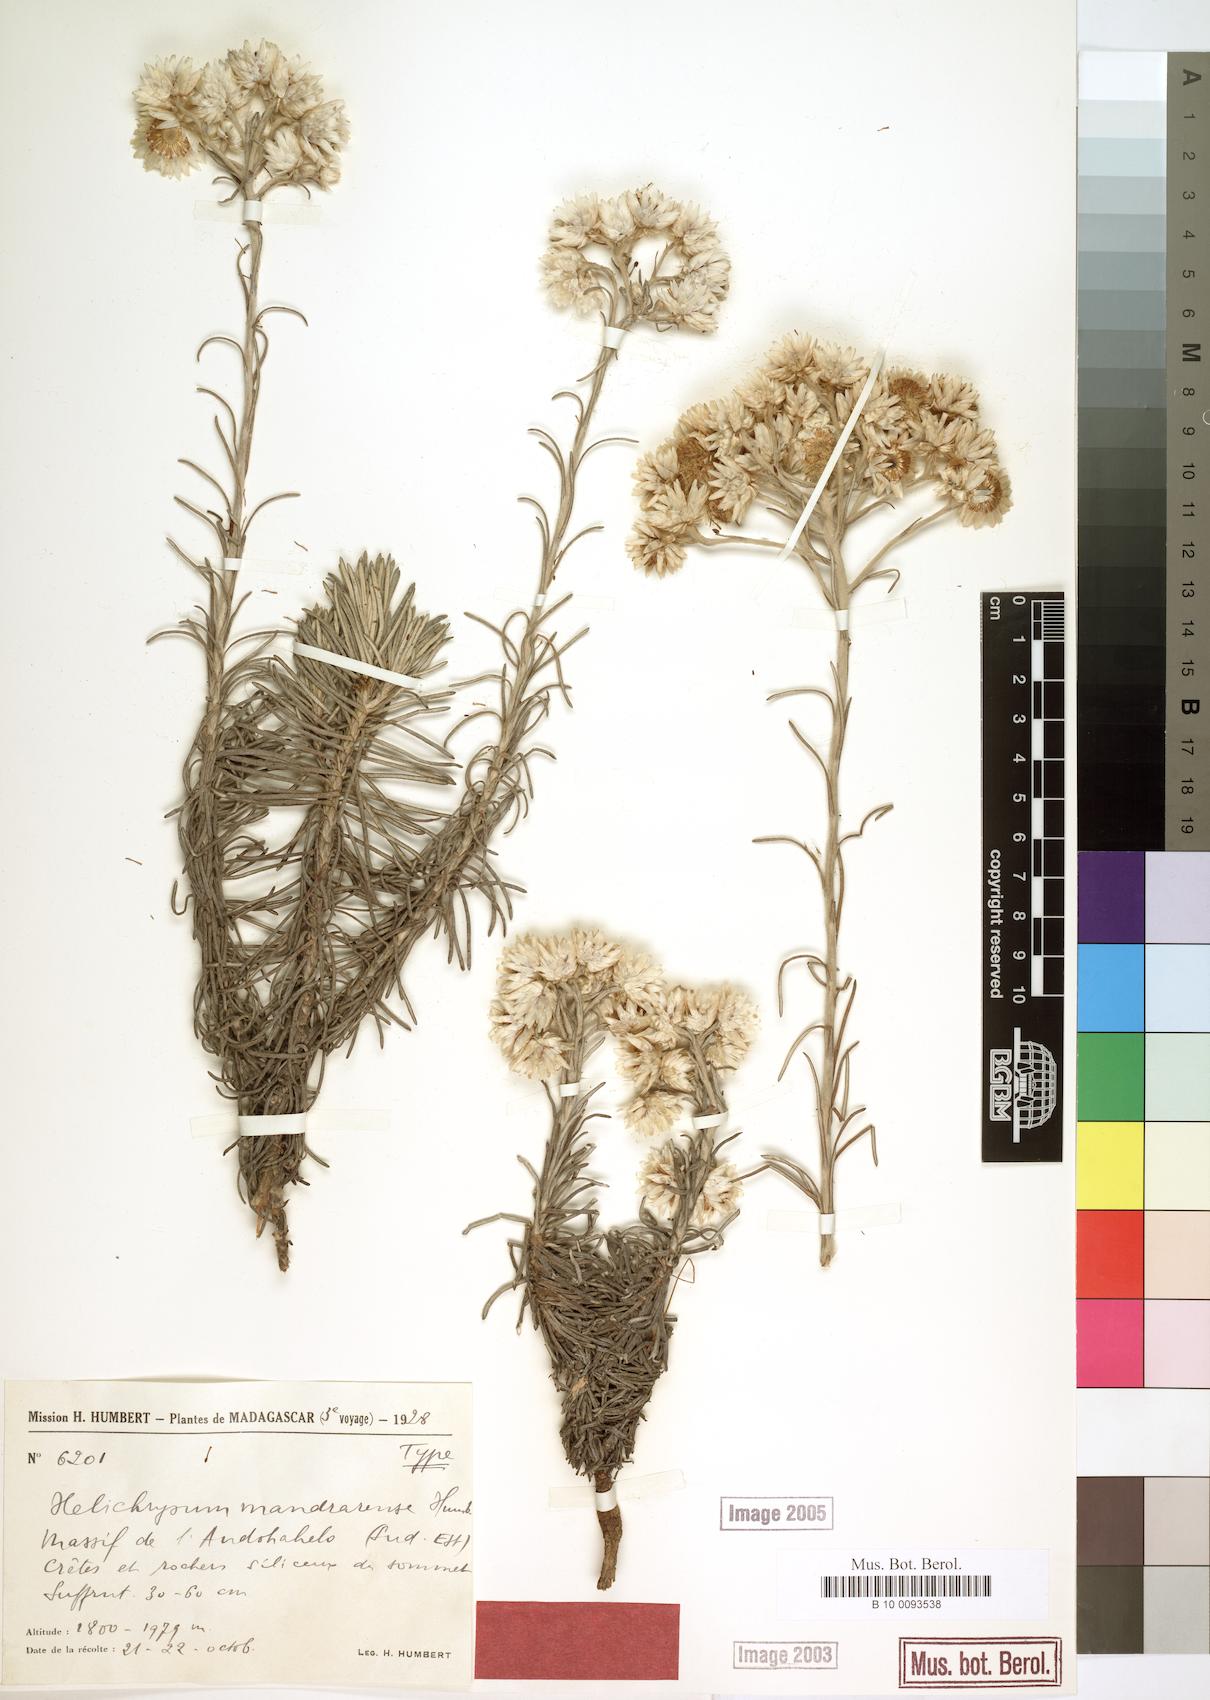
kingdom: Plantae
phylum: Tracheophyta
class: Magnoliopsida
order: Asterales
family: Asteraceae
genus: Helichrysum
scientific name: Helichrysum mandrarense
